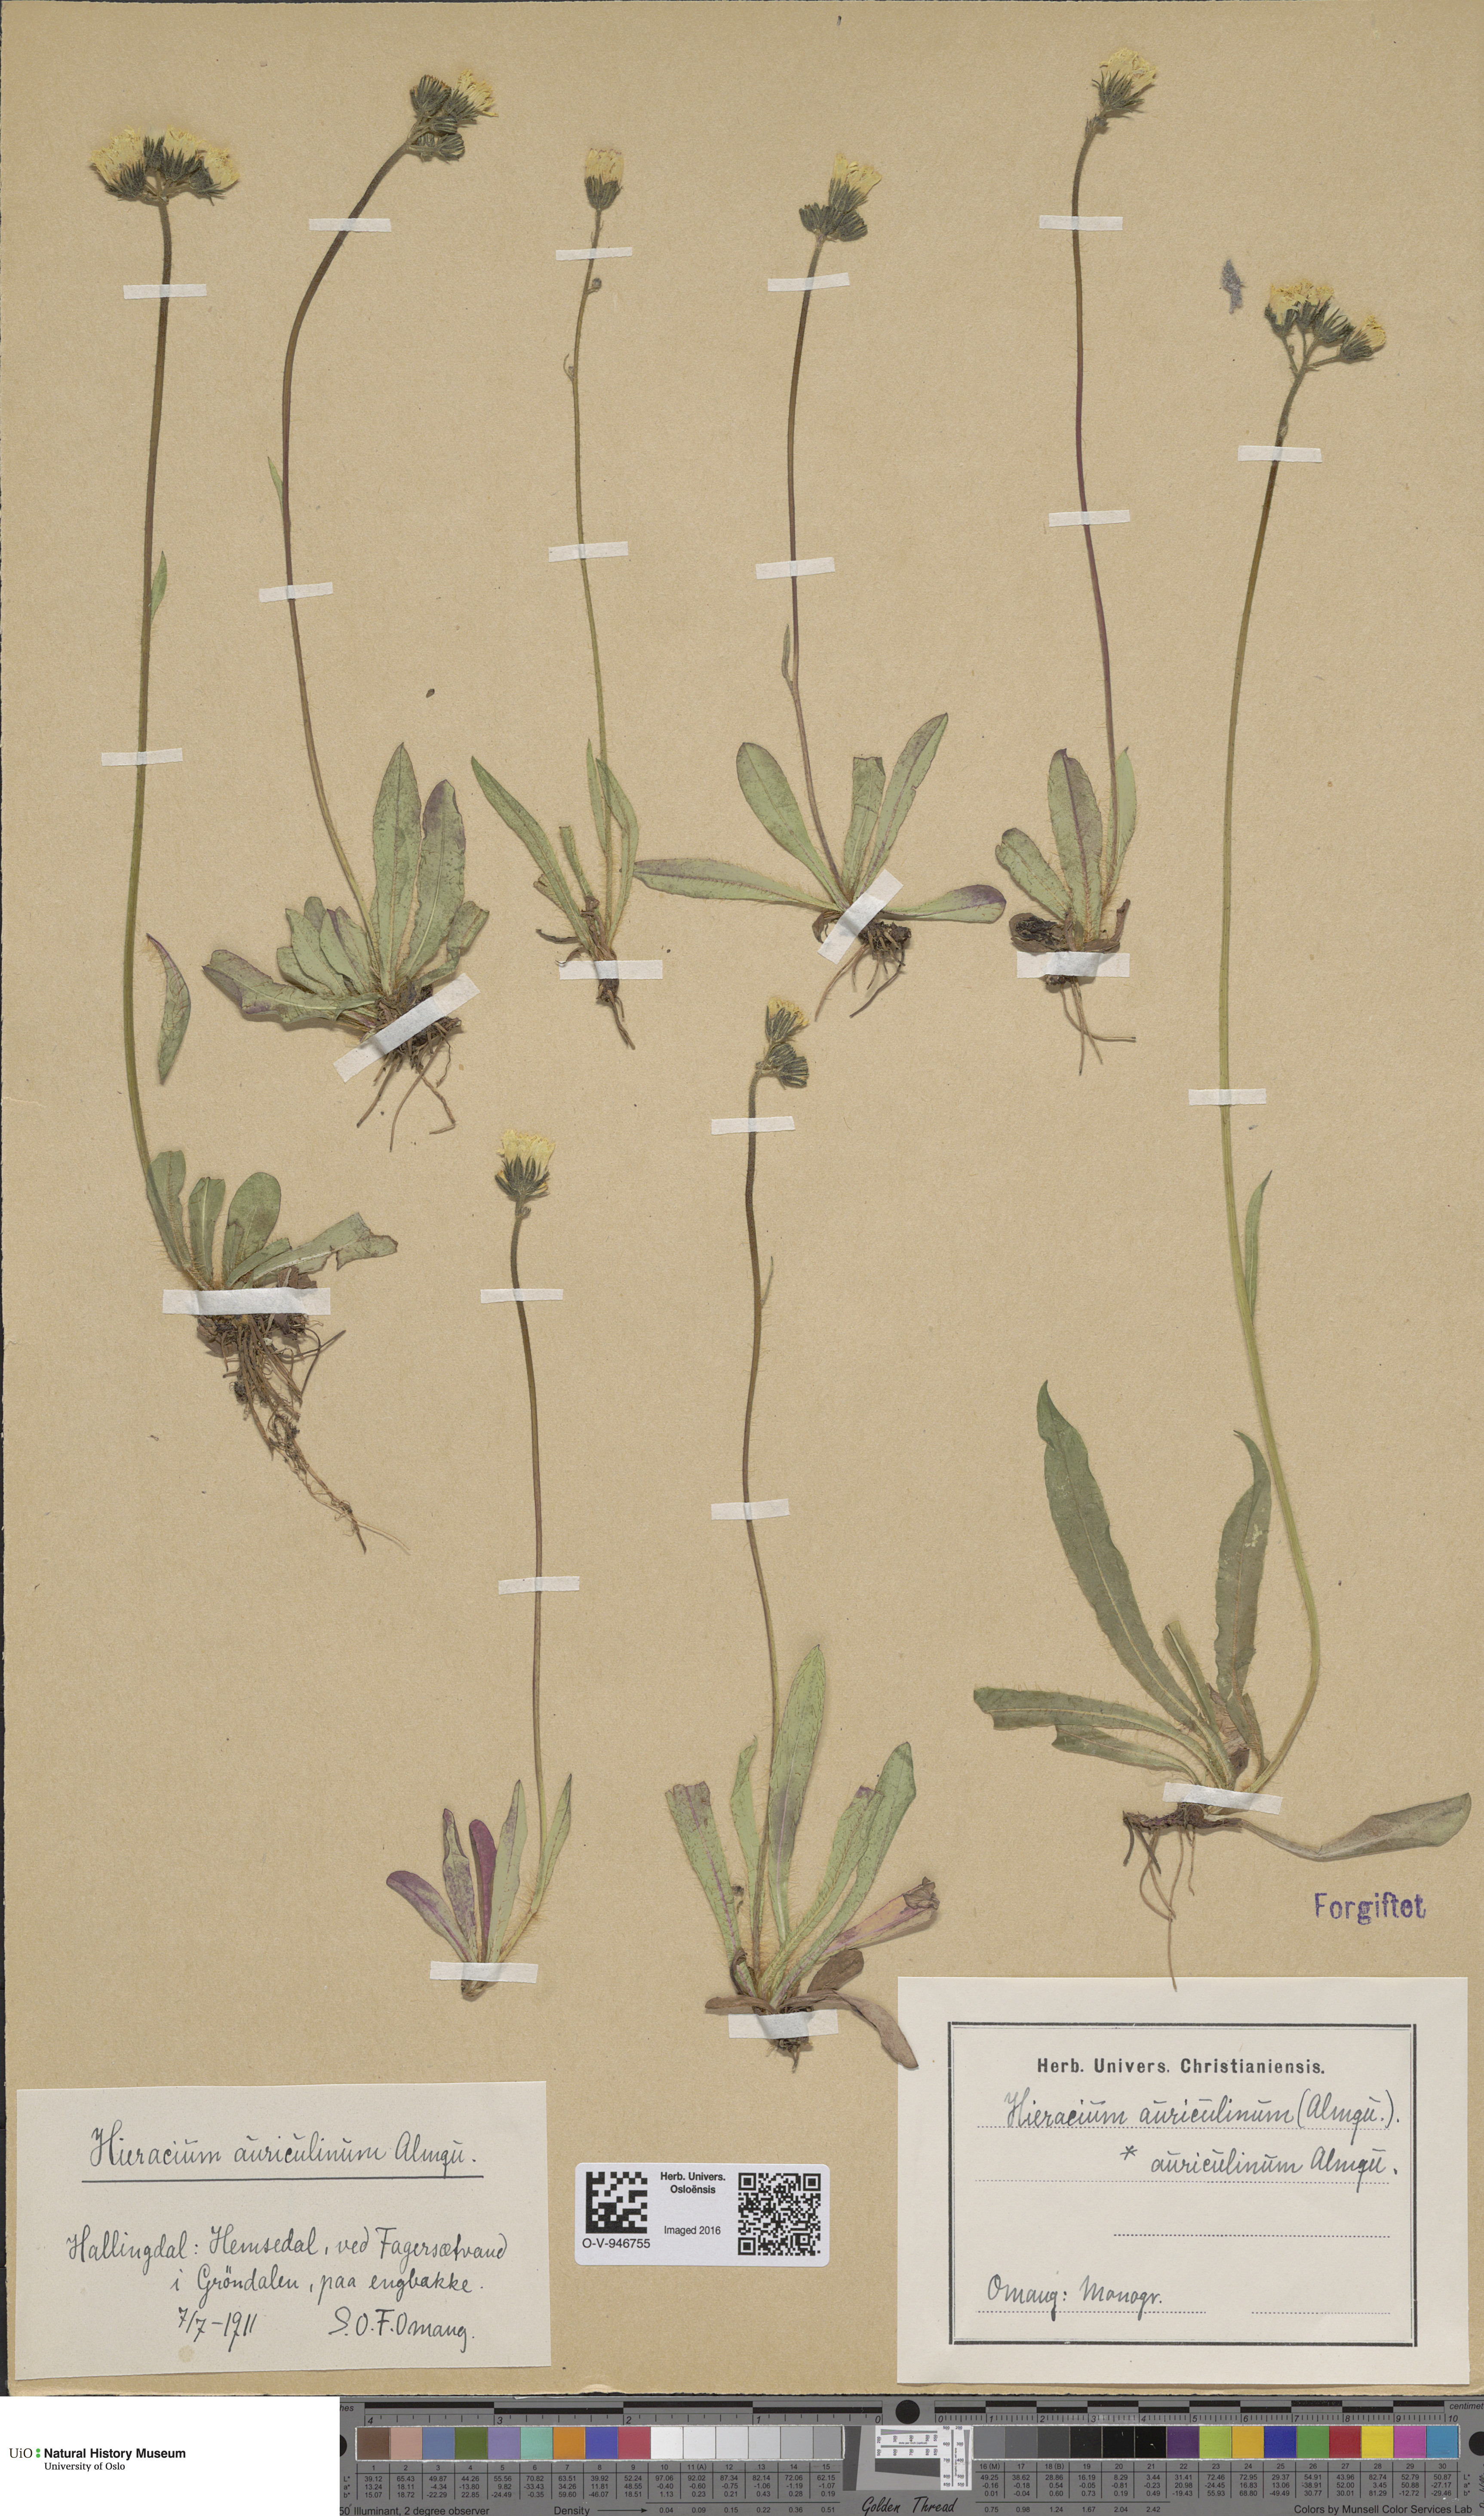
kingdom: Plantae
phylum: Tracheophyta
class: Magnoliopsida
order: Asterales
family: Asteraceae
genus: Pilosella
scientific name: Pilosella dubia
